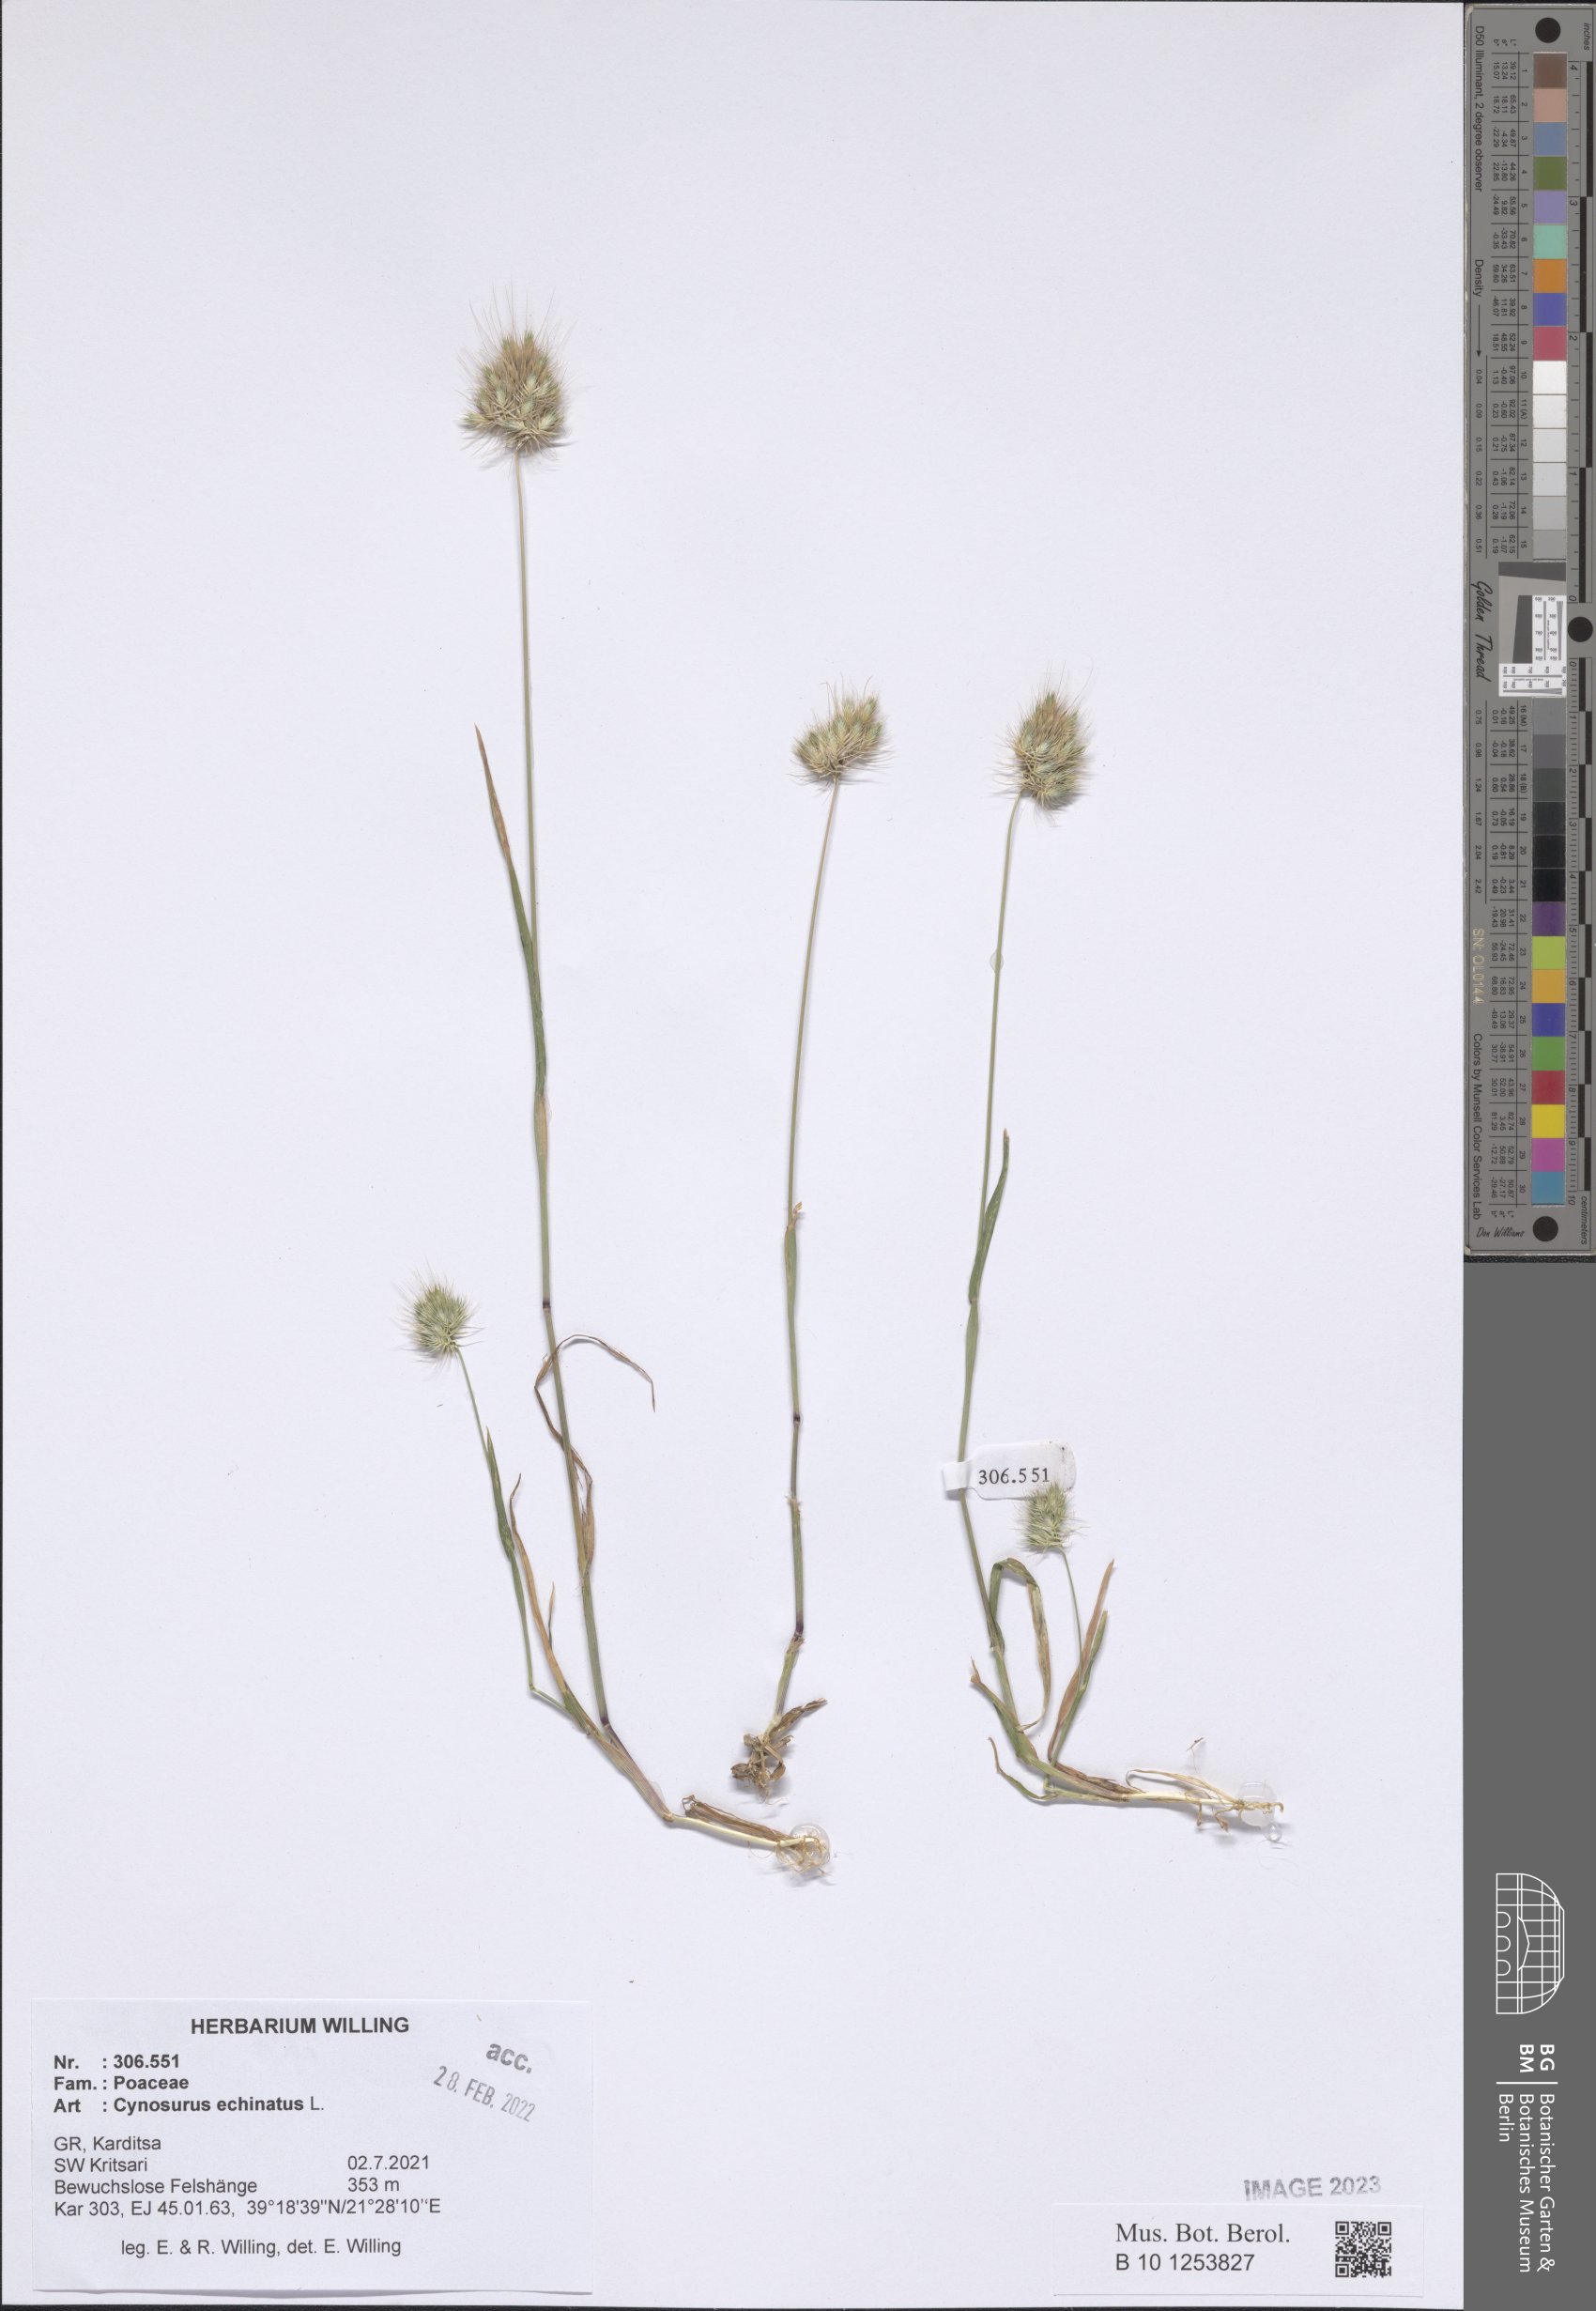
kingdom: Plantae
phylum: Tracheophyta
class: Liliopsida
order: Poales
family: Poaceae
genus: Cynosurus
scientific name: Cynosurus echinatus
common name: Rough dog's-tail
